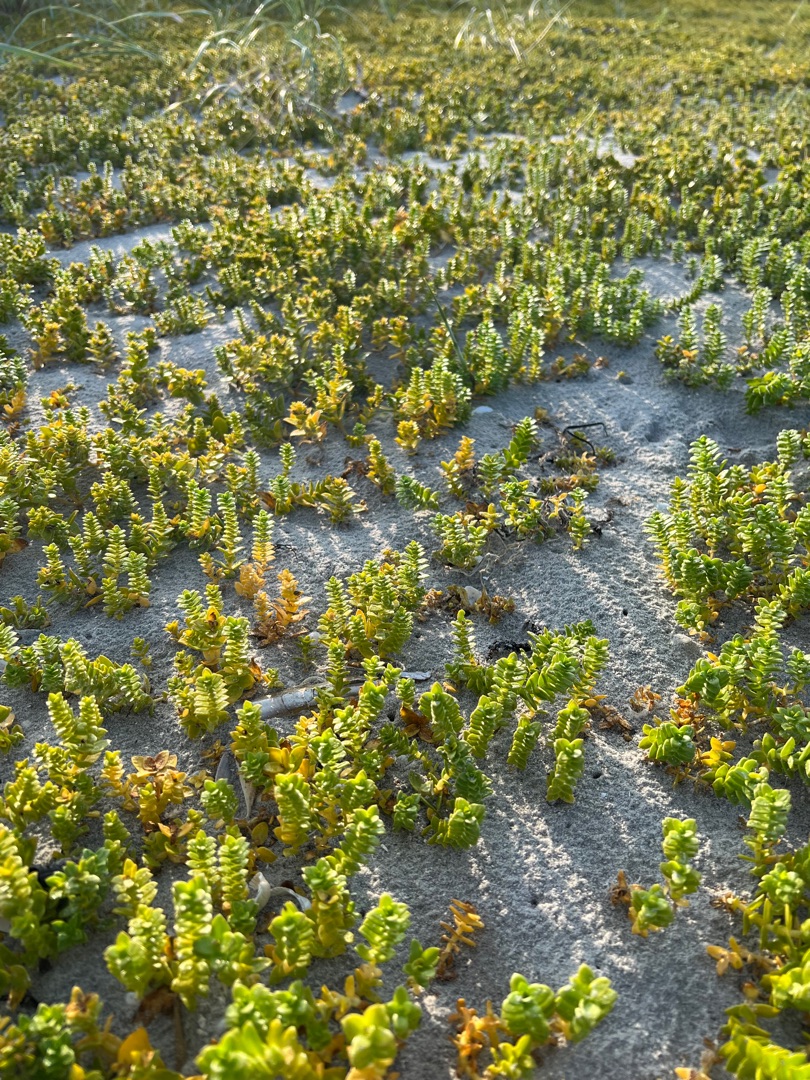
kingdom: Plantae
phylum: Tracheophyta
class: Magnoliopsida
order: Caryophyllales
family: Caryophyllaceae
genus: Honckenya
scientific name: Honckenya peploides
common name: Strandarve
